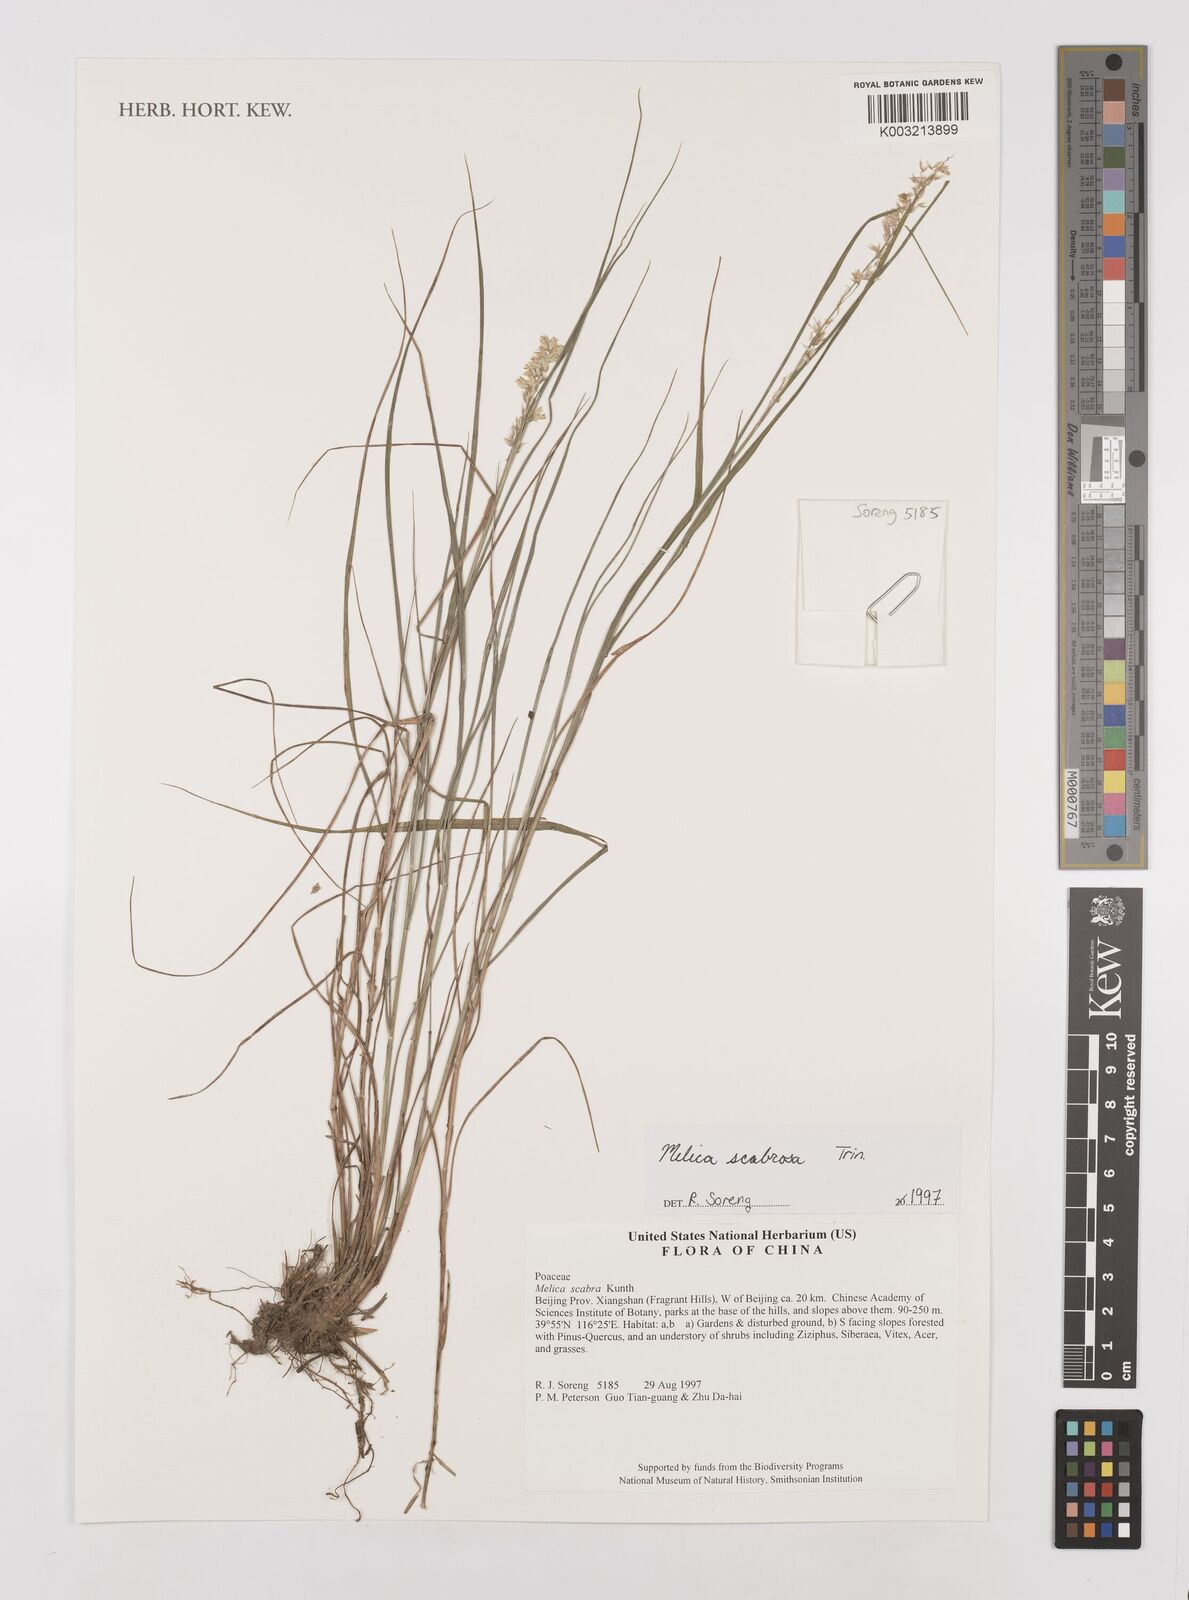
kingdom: Plantae
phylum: Tracheophyta
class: Liliopsida
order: Poales
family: Poaceae
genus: Melica
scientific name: Melica scabrosa
